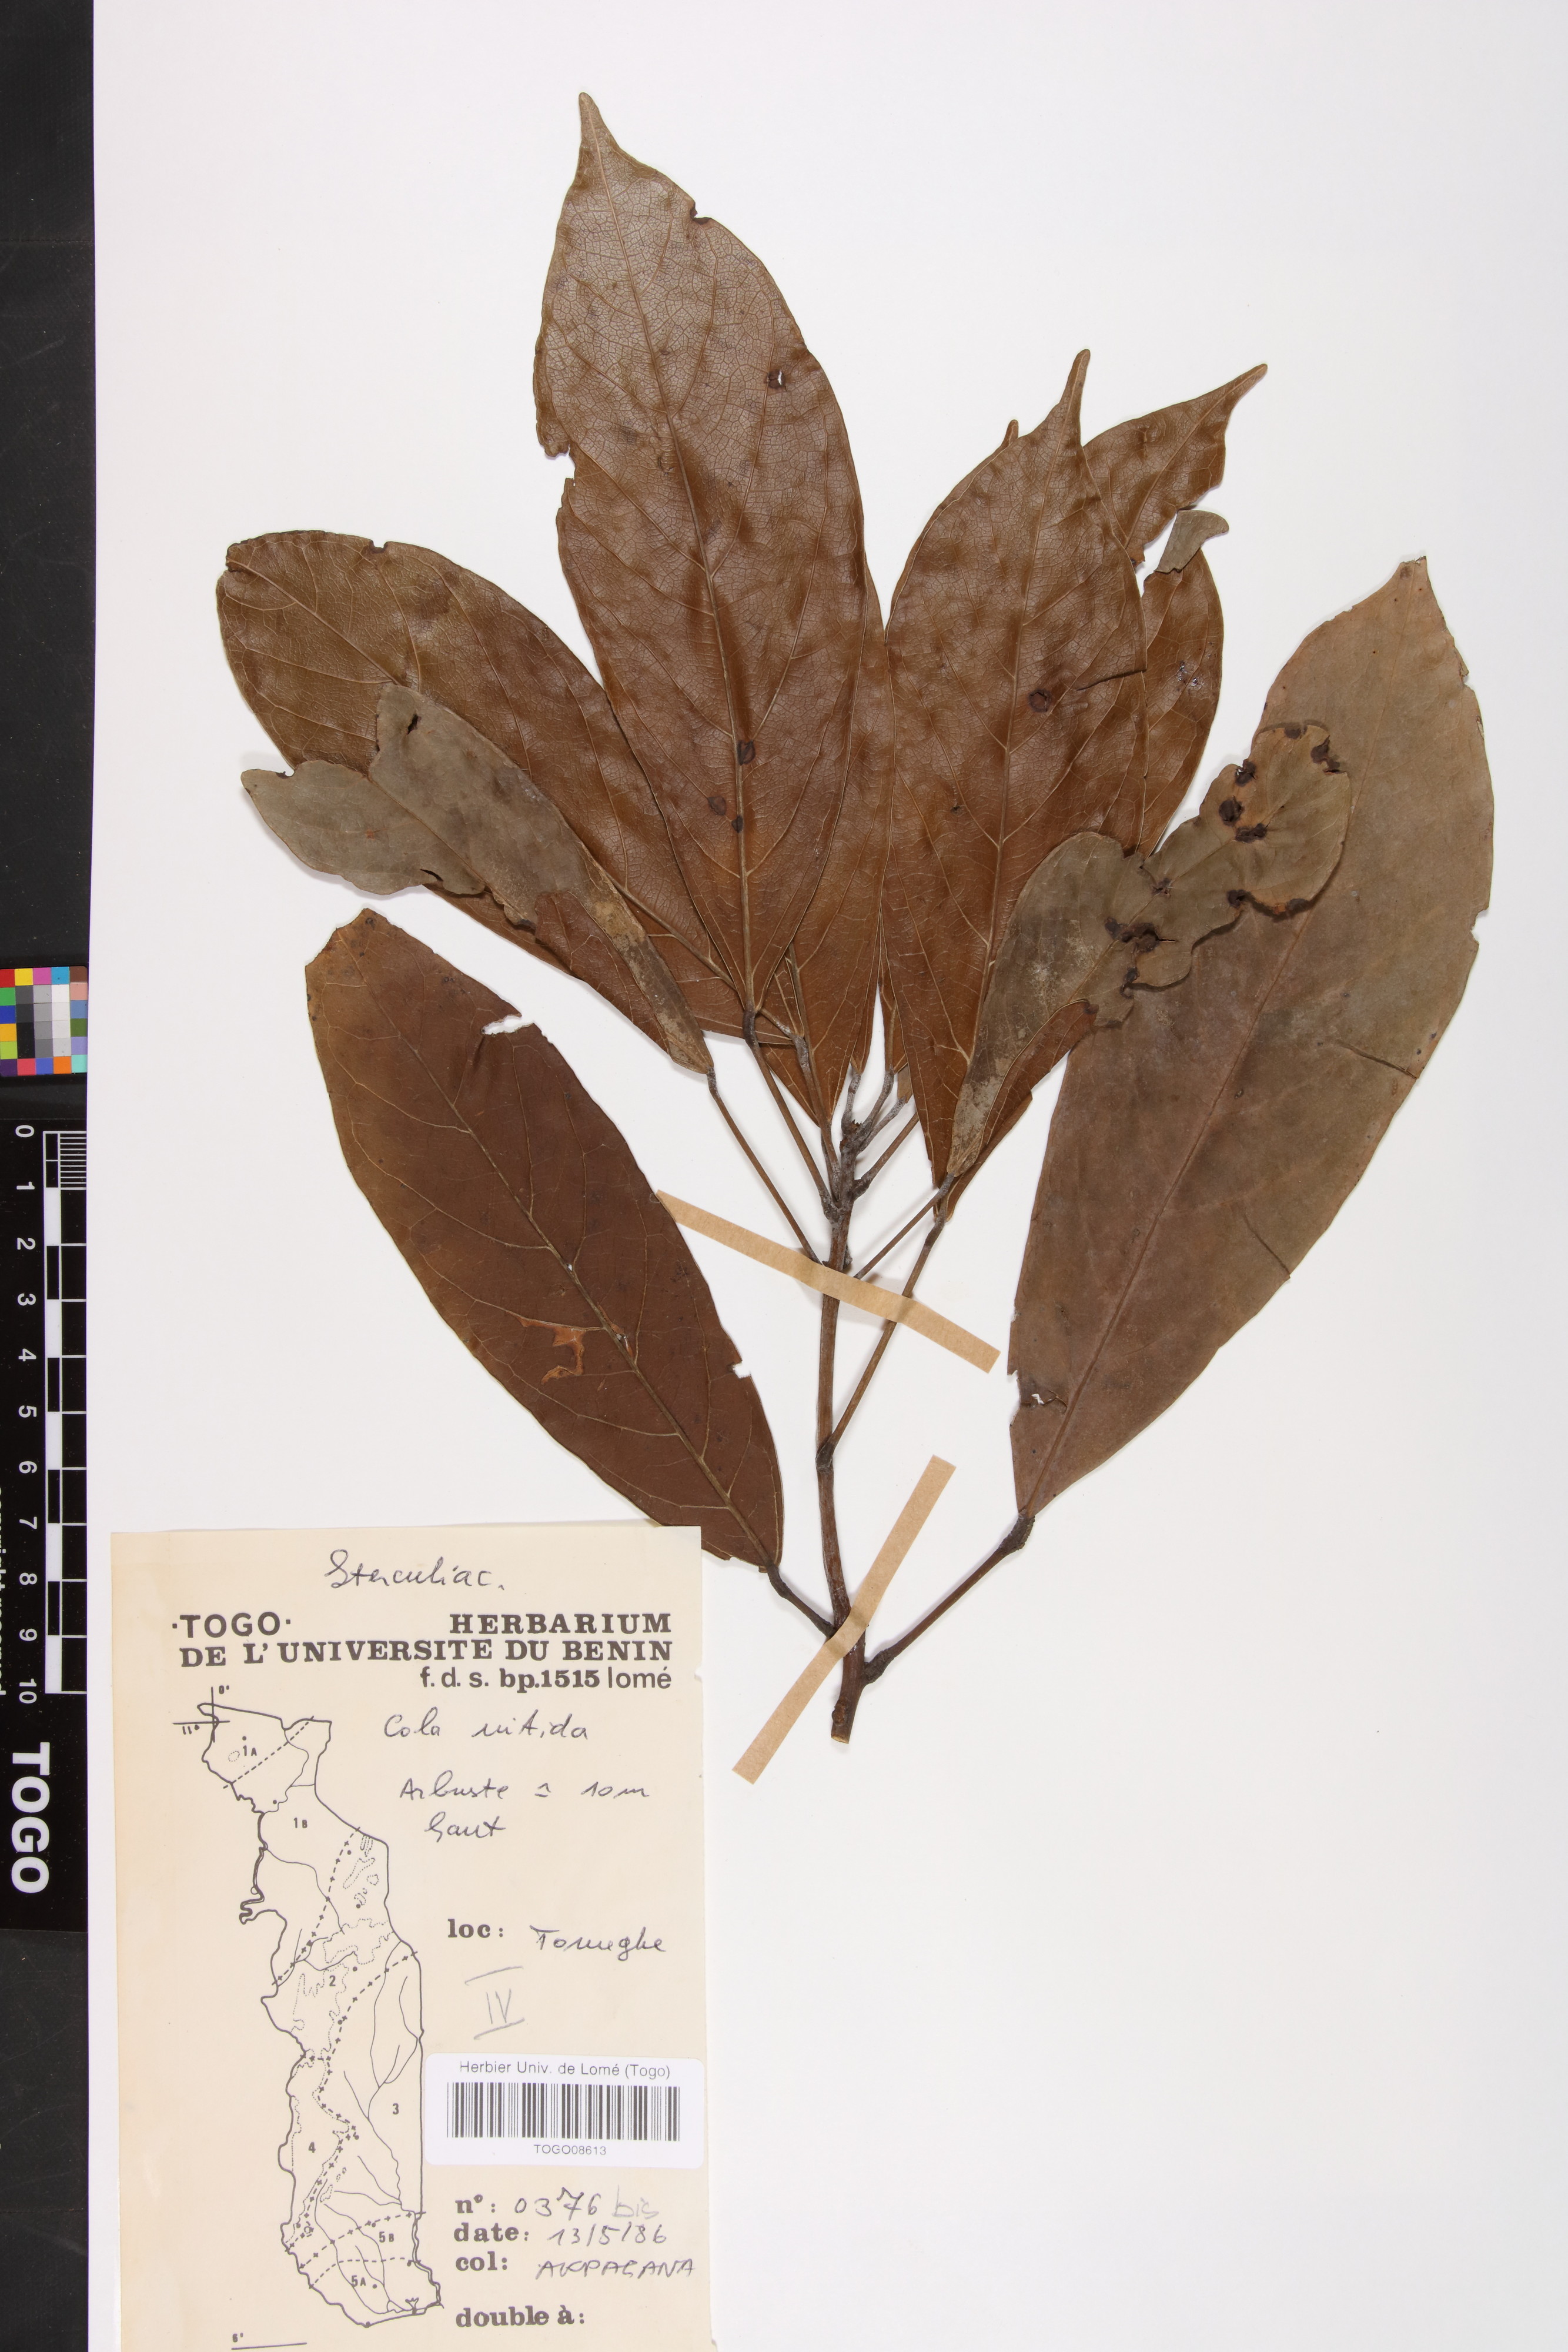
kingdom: Plantae
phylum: Tracheophyta
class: Magnoliopsida
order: Malvales
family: Malvaceae
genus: Cola
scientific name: Cola nitida
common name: Kola nut
